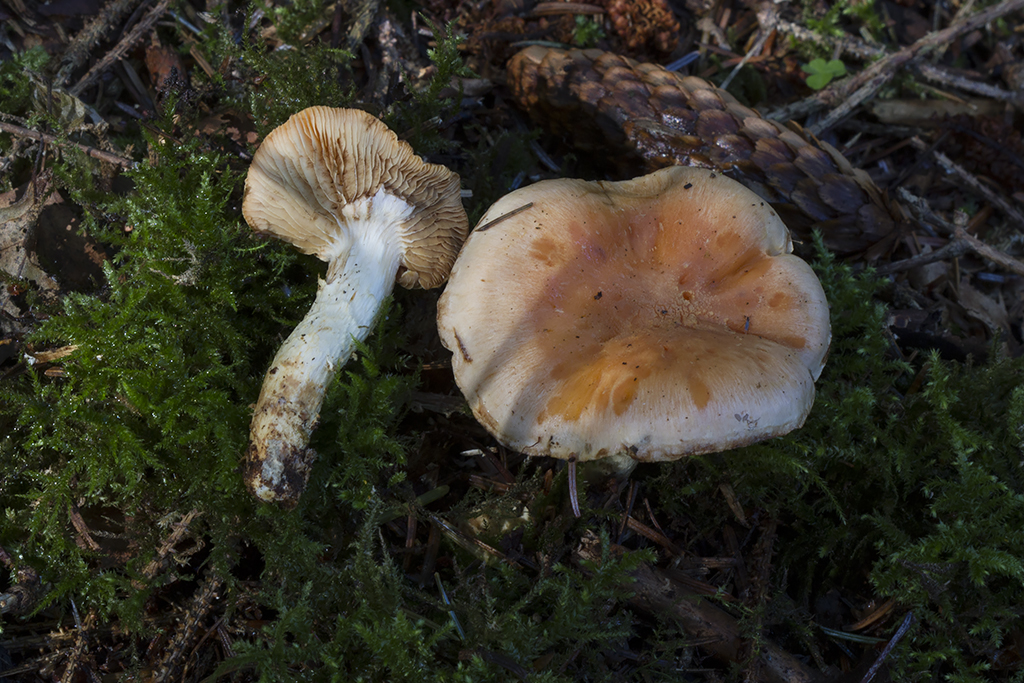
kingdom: Fungi
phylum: Basidiomycota
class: Agaricomycetes
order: Agaricales
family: Strophariaceae
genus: Pyrrhulomyces
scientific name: Pyrrhulomyces astragalinus
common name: safran-skælhat
